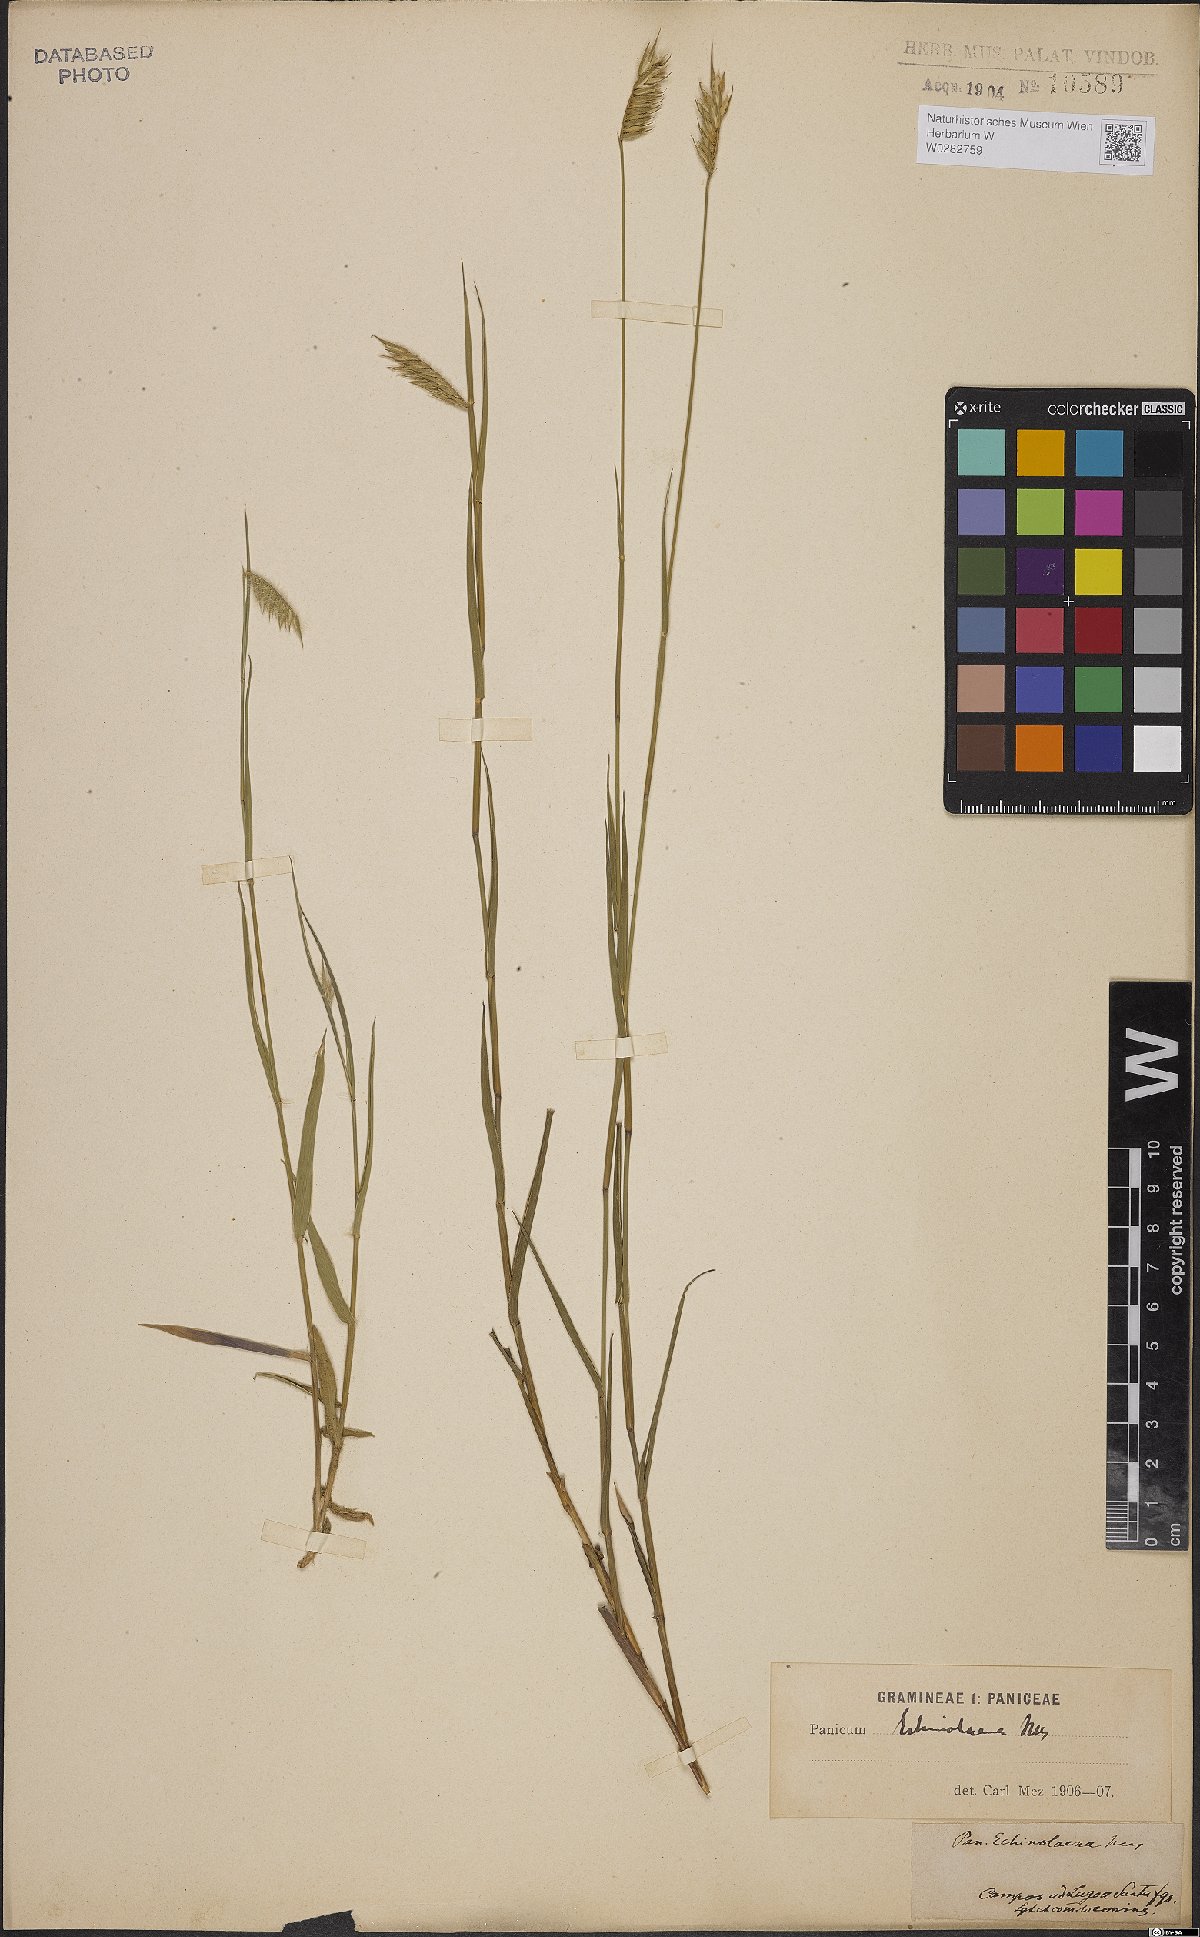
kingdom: Plantae
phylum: Tracheophyta
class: Liliopsida
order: Poales
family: Poaceae
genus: Echinolaena
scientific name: Echinolaena inflexa
